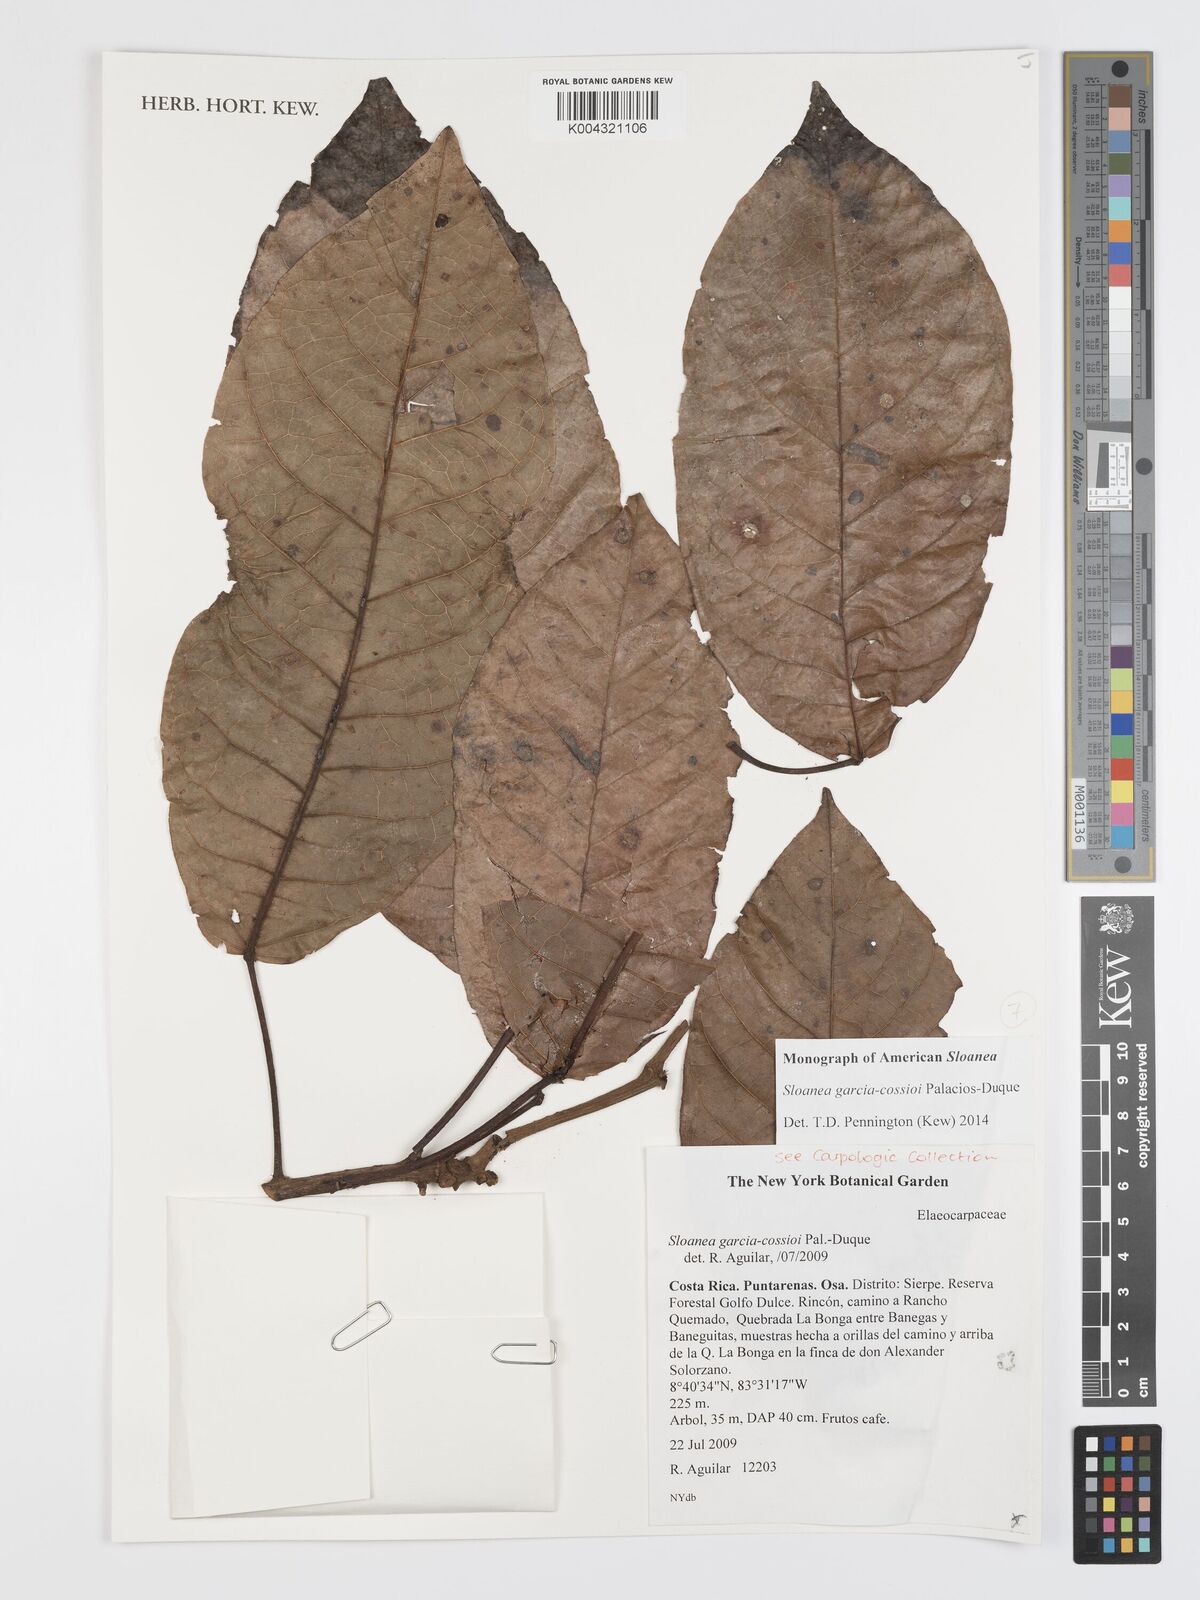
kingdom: Plantae
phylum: Tracheophyta
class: Magnoliopsida
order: Oxalidales
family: Elaeocarpaceae
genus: Sloanea
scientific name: Sloanea garcia-cossioi
